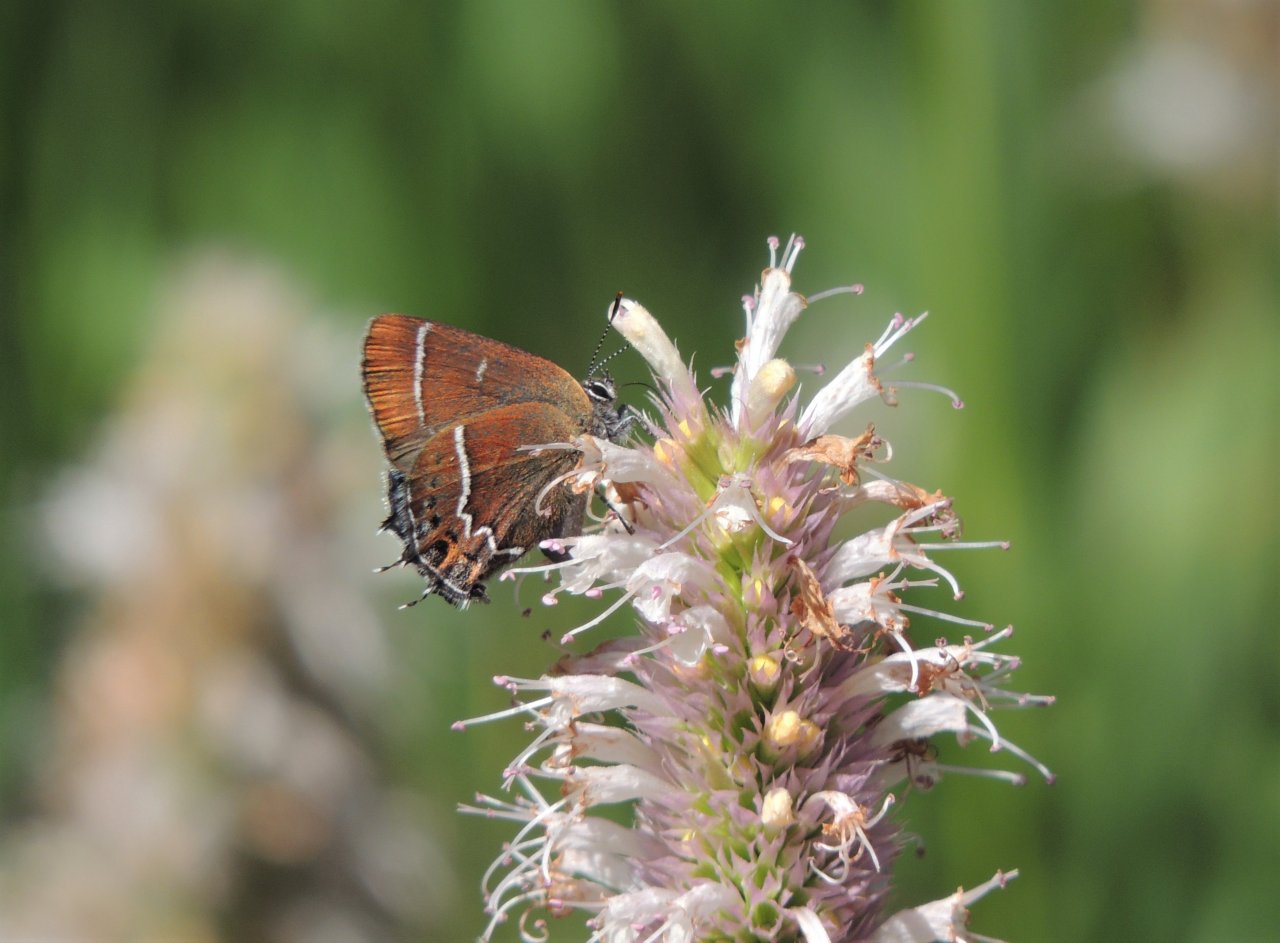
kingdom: Animalia
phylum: Arthropoda
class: Insecta
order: Lepidoptera
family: Lycaenidae
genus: Mitoura
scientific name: Mitoura spinetorum
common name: Thicket Hairstreak
